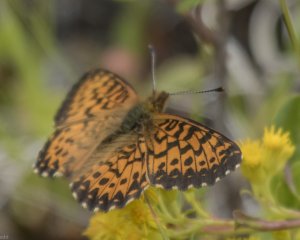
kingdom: Animalia
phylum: Arthropoda
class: Insecta
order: Lepidoptera
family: Nymphalidae
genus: Boloria
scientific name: Boloria chariclea
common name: Arctic Fritillary
